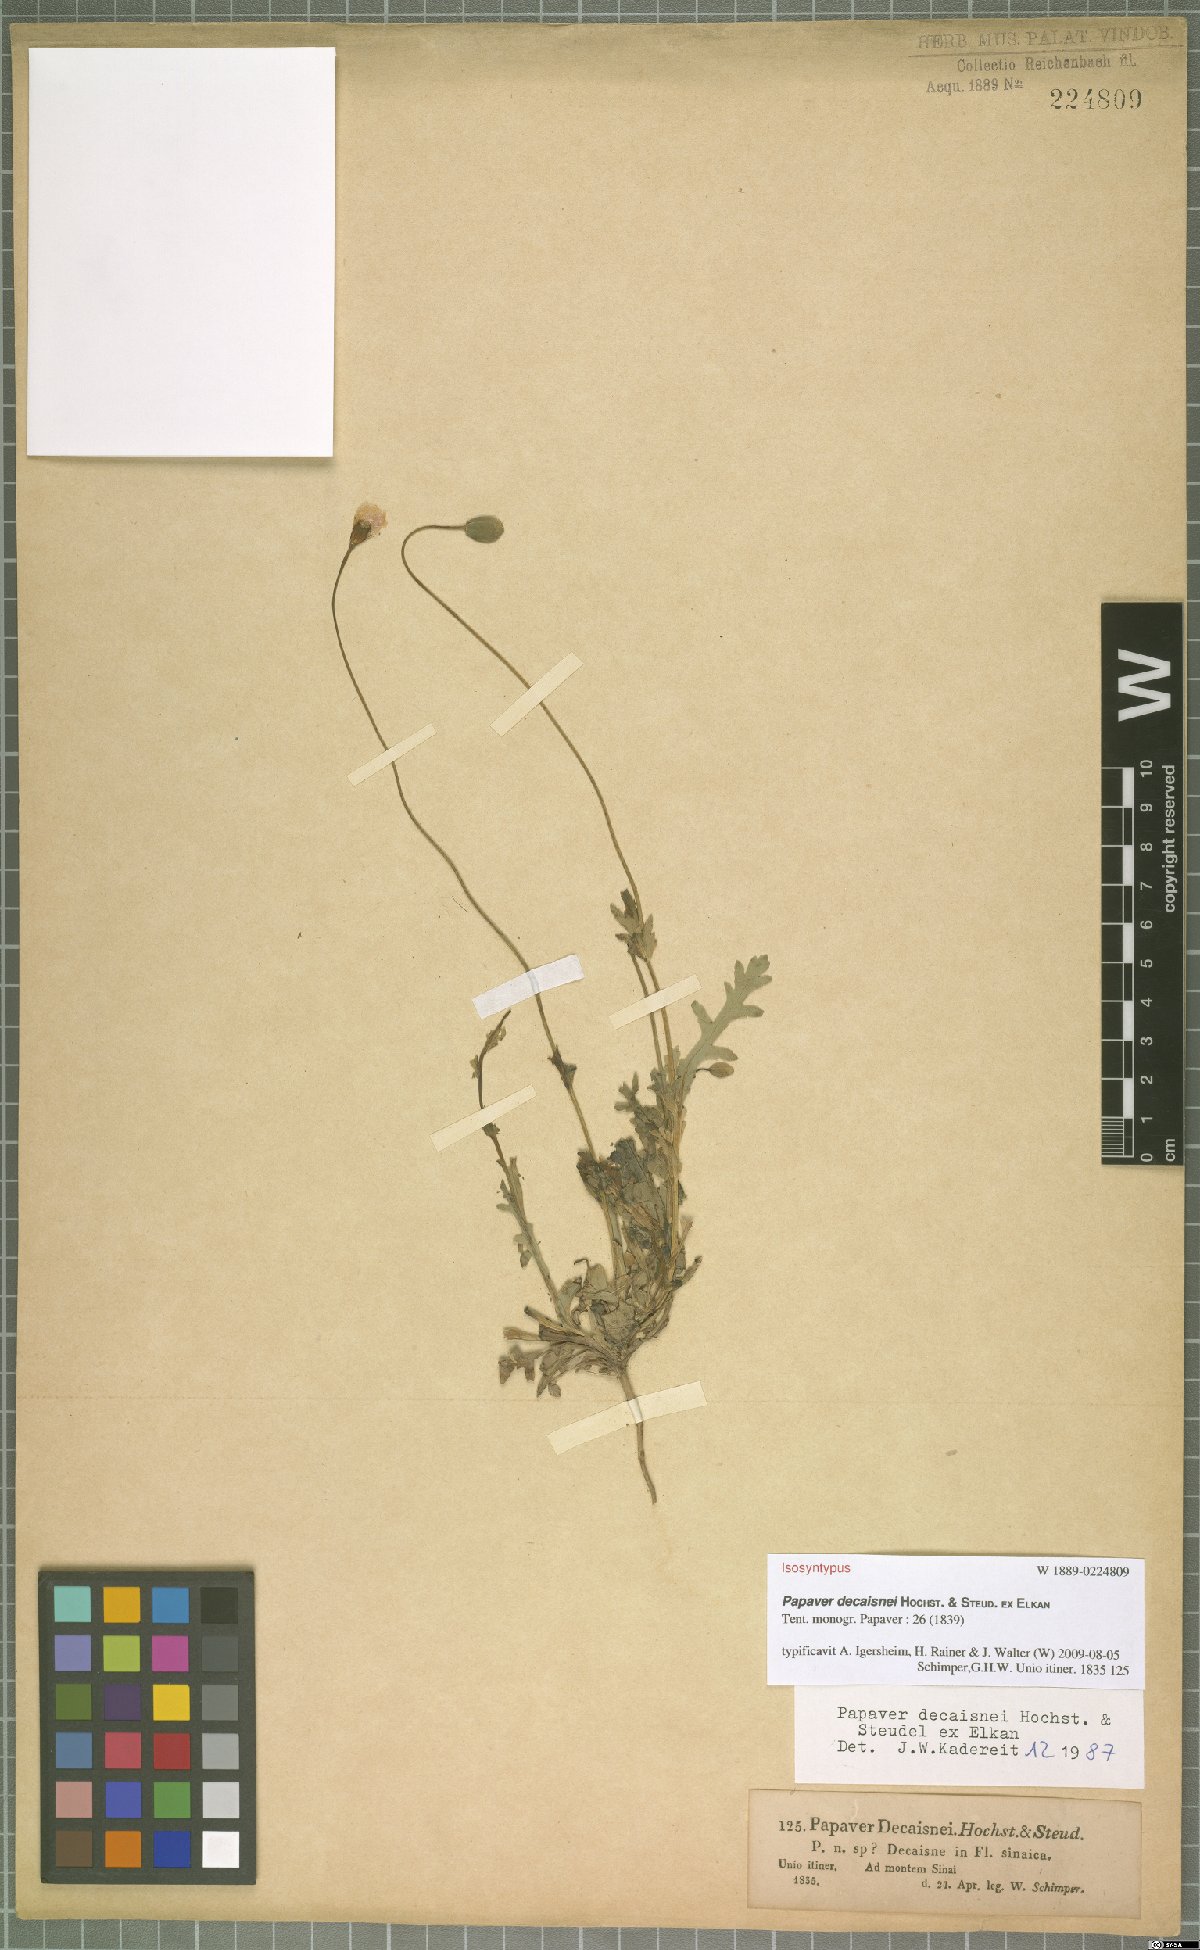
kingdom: Plantae
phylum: Tracheophyta
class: Magnoliopsida
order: Ranunculales
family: Papaveraceae
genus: Papaver
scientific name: Papaver decaisnei
